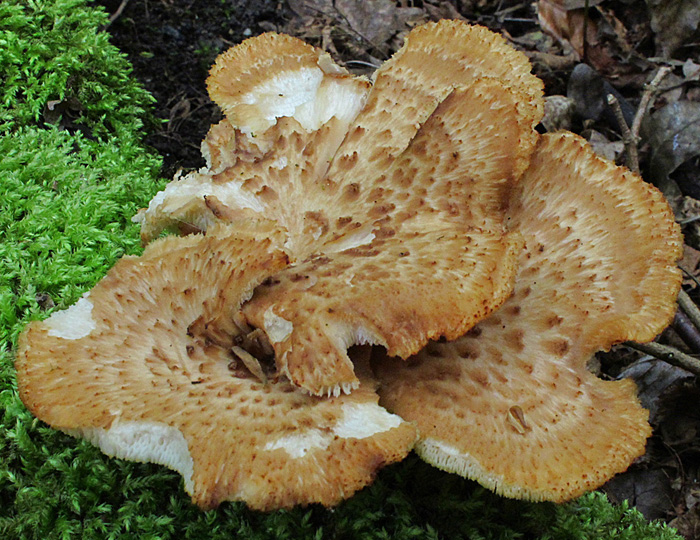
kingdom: Fungi
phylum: Basidiomycota
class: Agaricomycetes
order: Polyporales
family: Polyporaceae
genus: Polyporus
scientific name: Polyporus tuberaster
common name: knoldet stilkporesvamp
